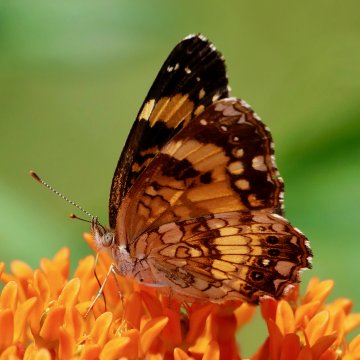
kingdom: Animalia
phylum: Arthropoda
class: Insecta
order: Lepidoptera
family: Nymphalidae
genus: Chlosyne
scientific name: Chlosyne nycteis
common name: Silvery Checkerspot
